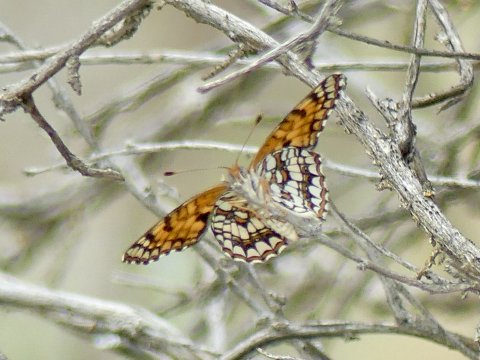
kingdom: Animalia
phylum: Arthropoda
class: Insecta
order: Lepidoptera
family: Nymphalidae
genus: Chlosyne
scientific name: Chlosyne acastus
